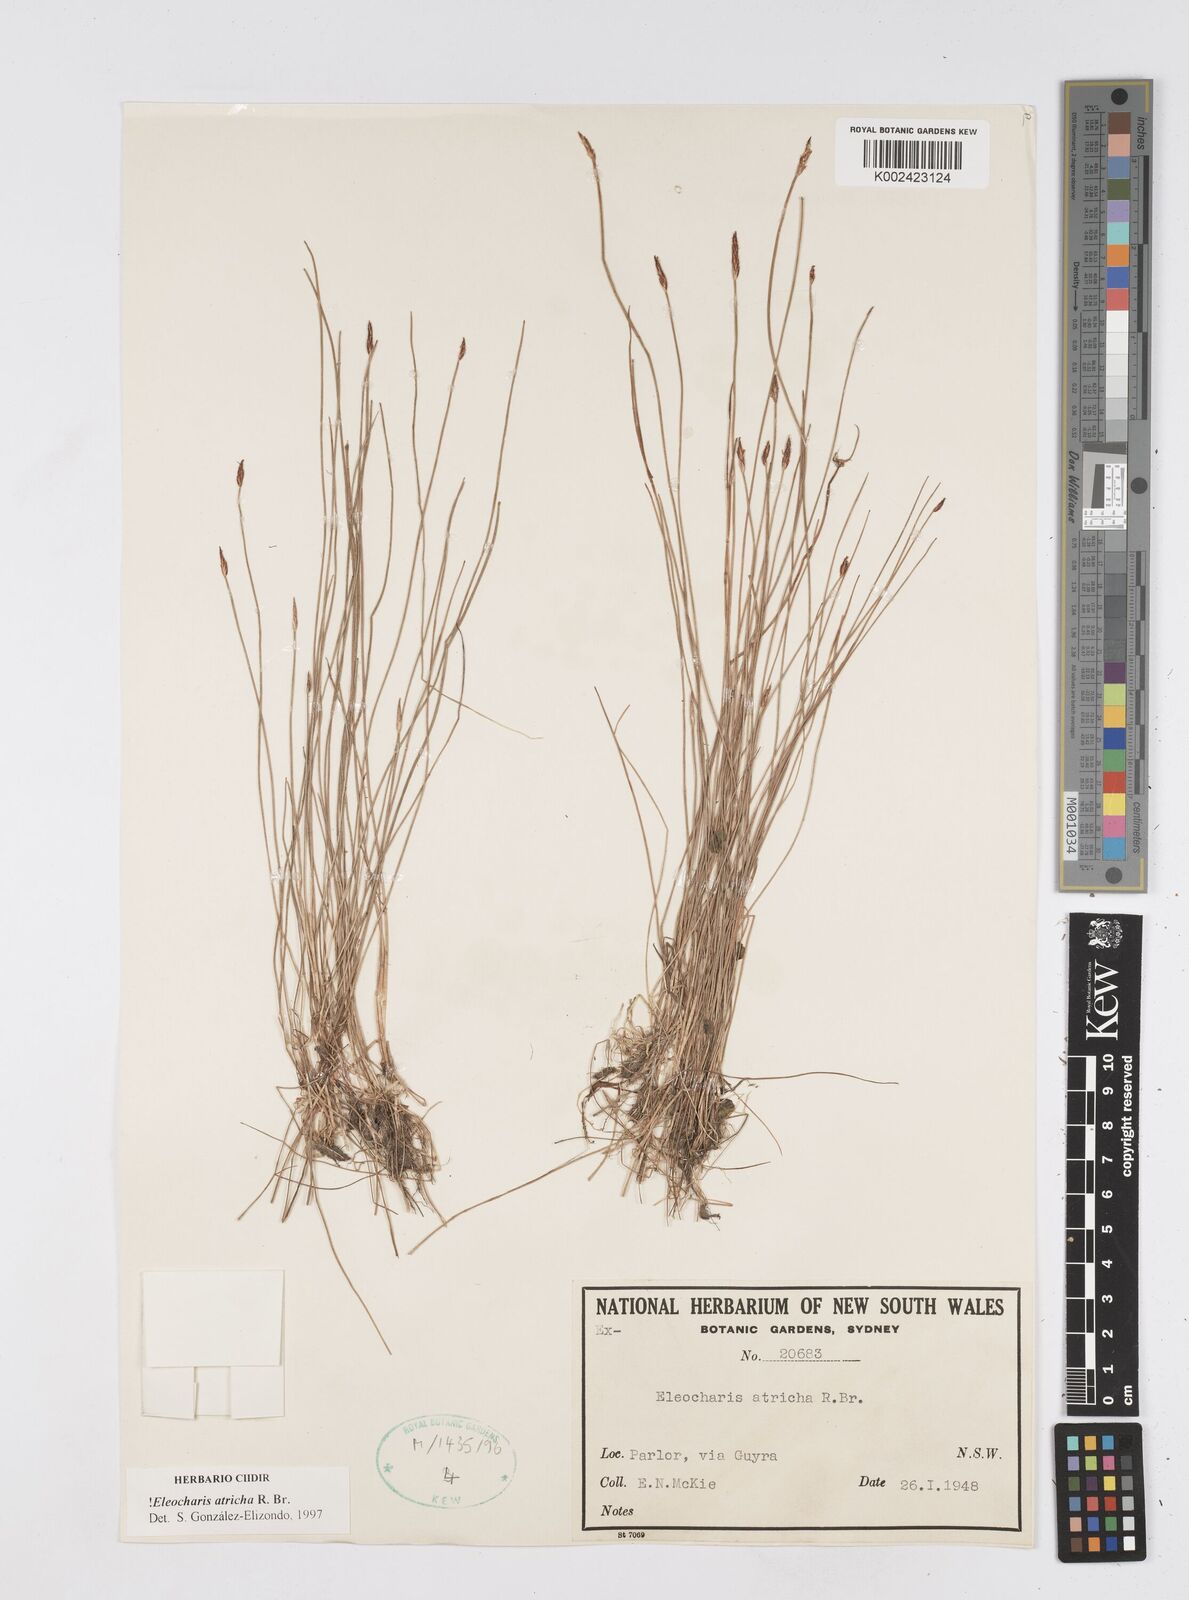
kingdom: Plantae
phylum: Tracheophyta
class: Liliopsida
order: Poales
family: Cyperaceae
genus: Eleocharis
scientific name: Eleocharis acicularis
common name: Needle spike-rush
